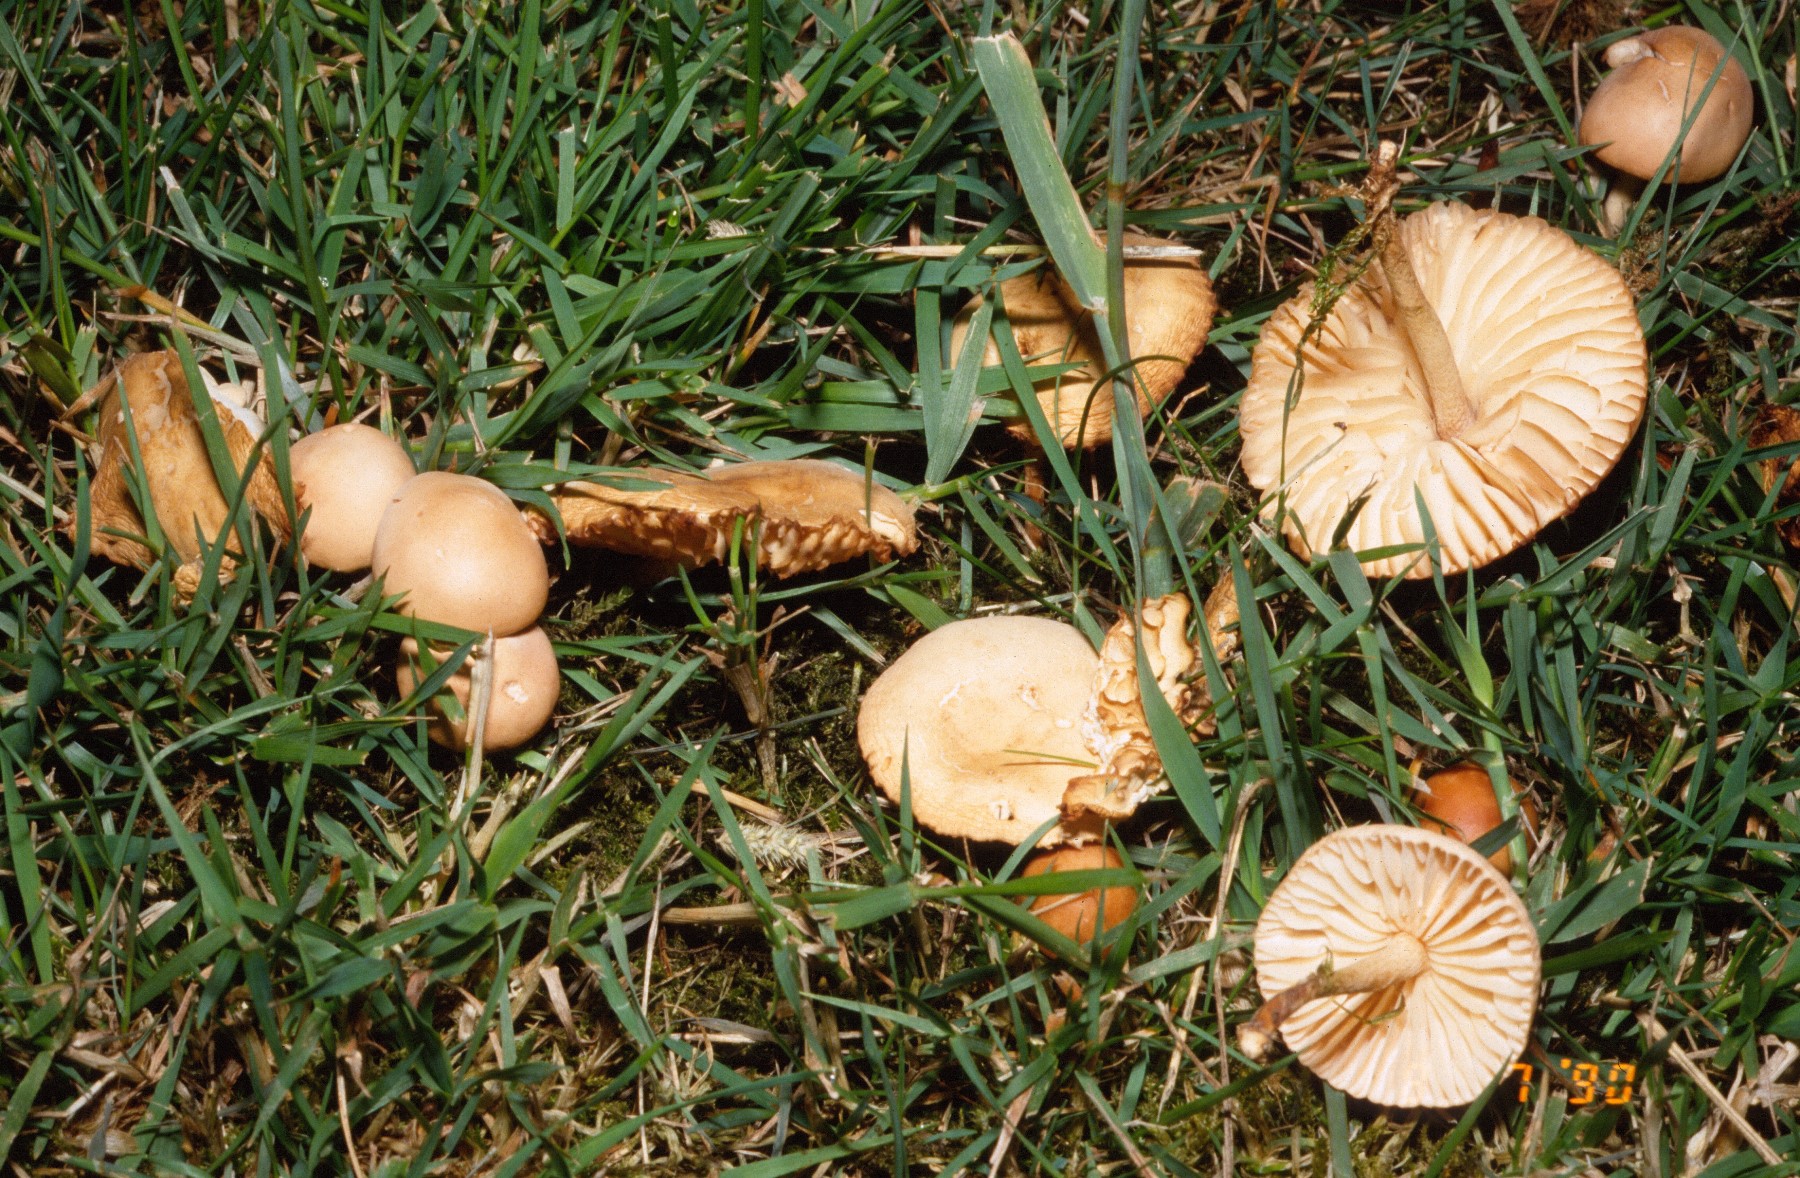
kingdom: Fungi
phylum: Basidiomycota
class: Agaricomycetes
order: Agaricales
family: Marasmiaceae
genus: Marasmius
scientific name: Marasmius oreades
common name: elledans-bruskhat
